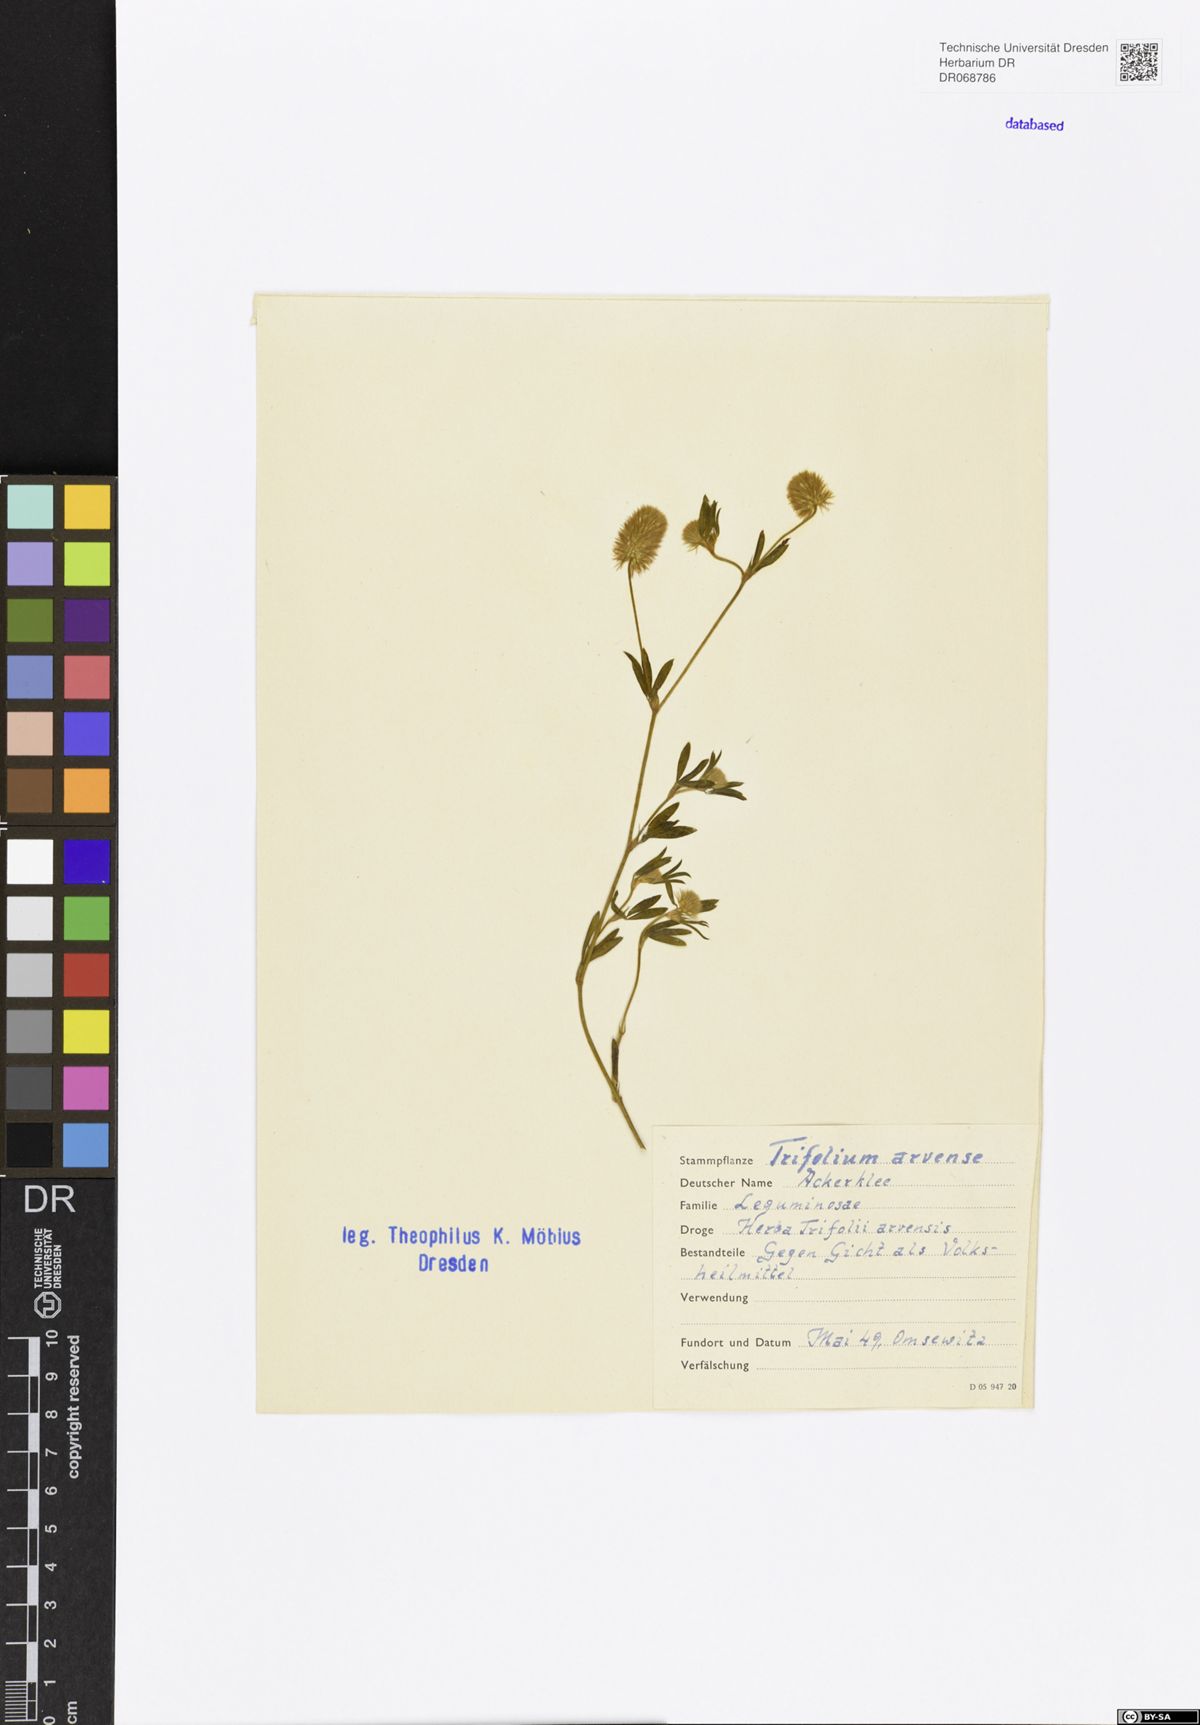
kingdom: Plantae
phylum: Tracheophyta
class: Magnoliopsida
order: Fabales
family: Fabaceae
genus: Trifolium
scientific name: Trifolium arvense
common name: Hare's-foot clover
